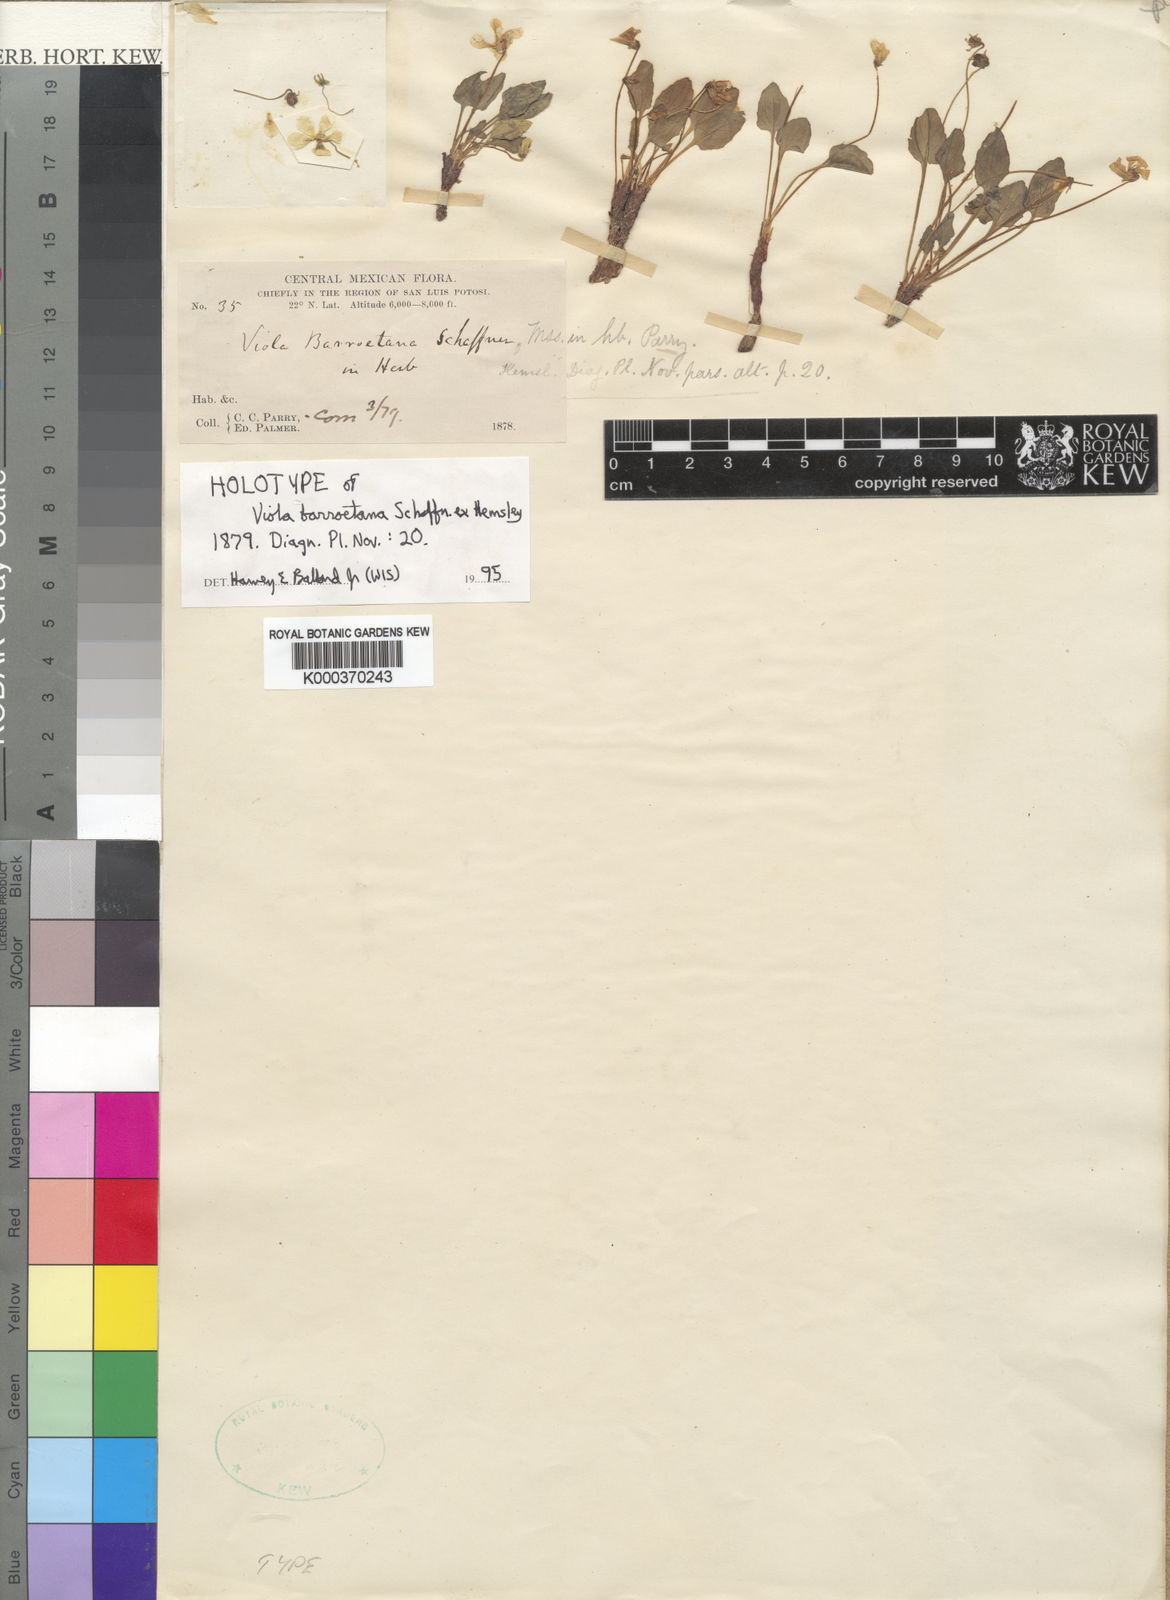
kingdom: Plantae
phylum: Tracheophyta
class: Magnoliopsida
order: Malpighiales
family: Violaceae
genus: Viola
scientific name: Viola barroetana
